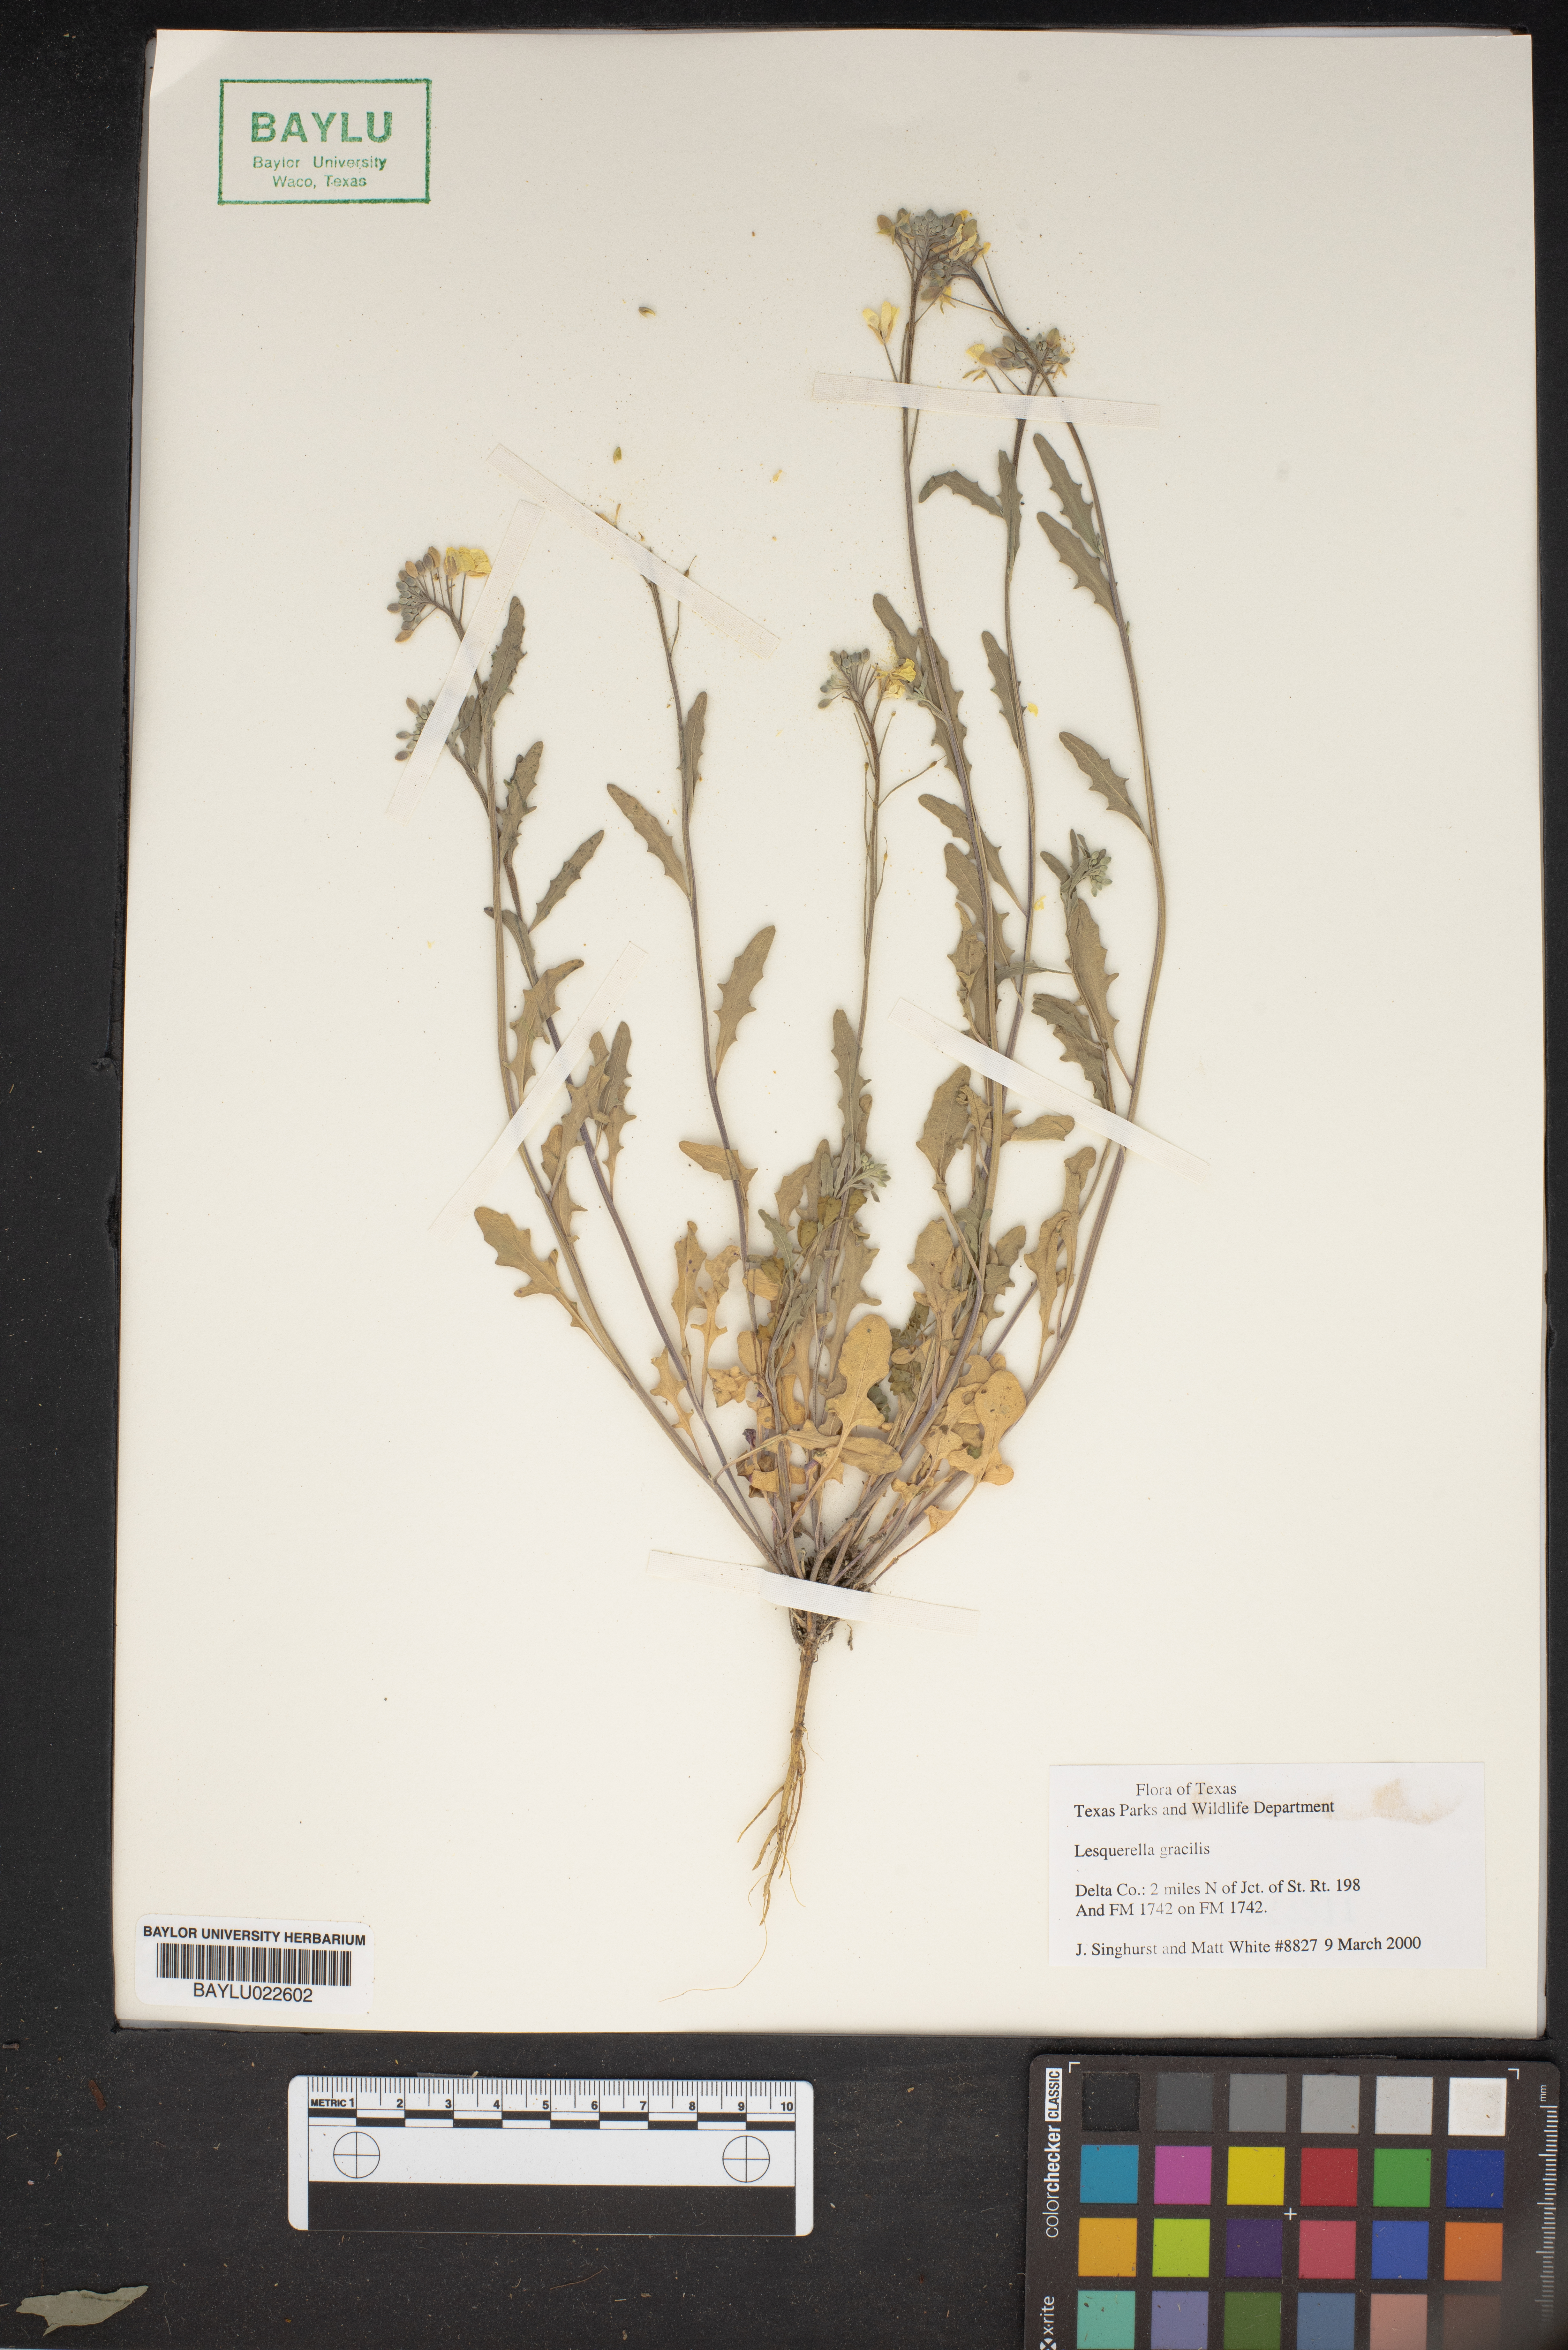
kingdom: Plantae
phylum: Tracheophyta
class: Magnoliopsida
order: Brassicales
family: Brassicaceae
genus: Physaria
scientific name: Physaria gracilis
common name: Spreading bladderpod
